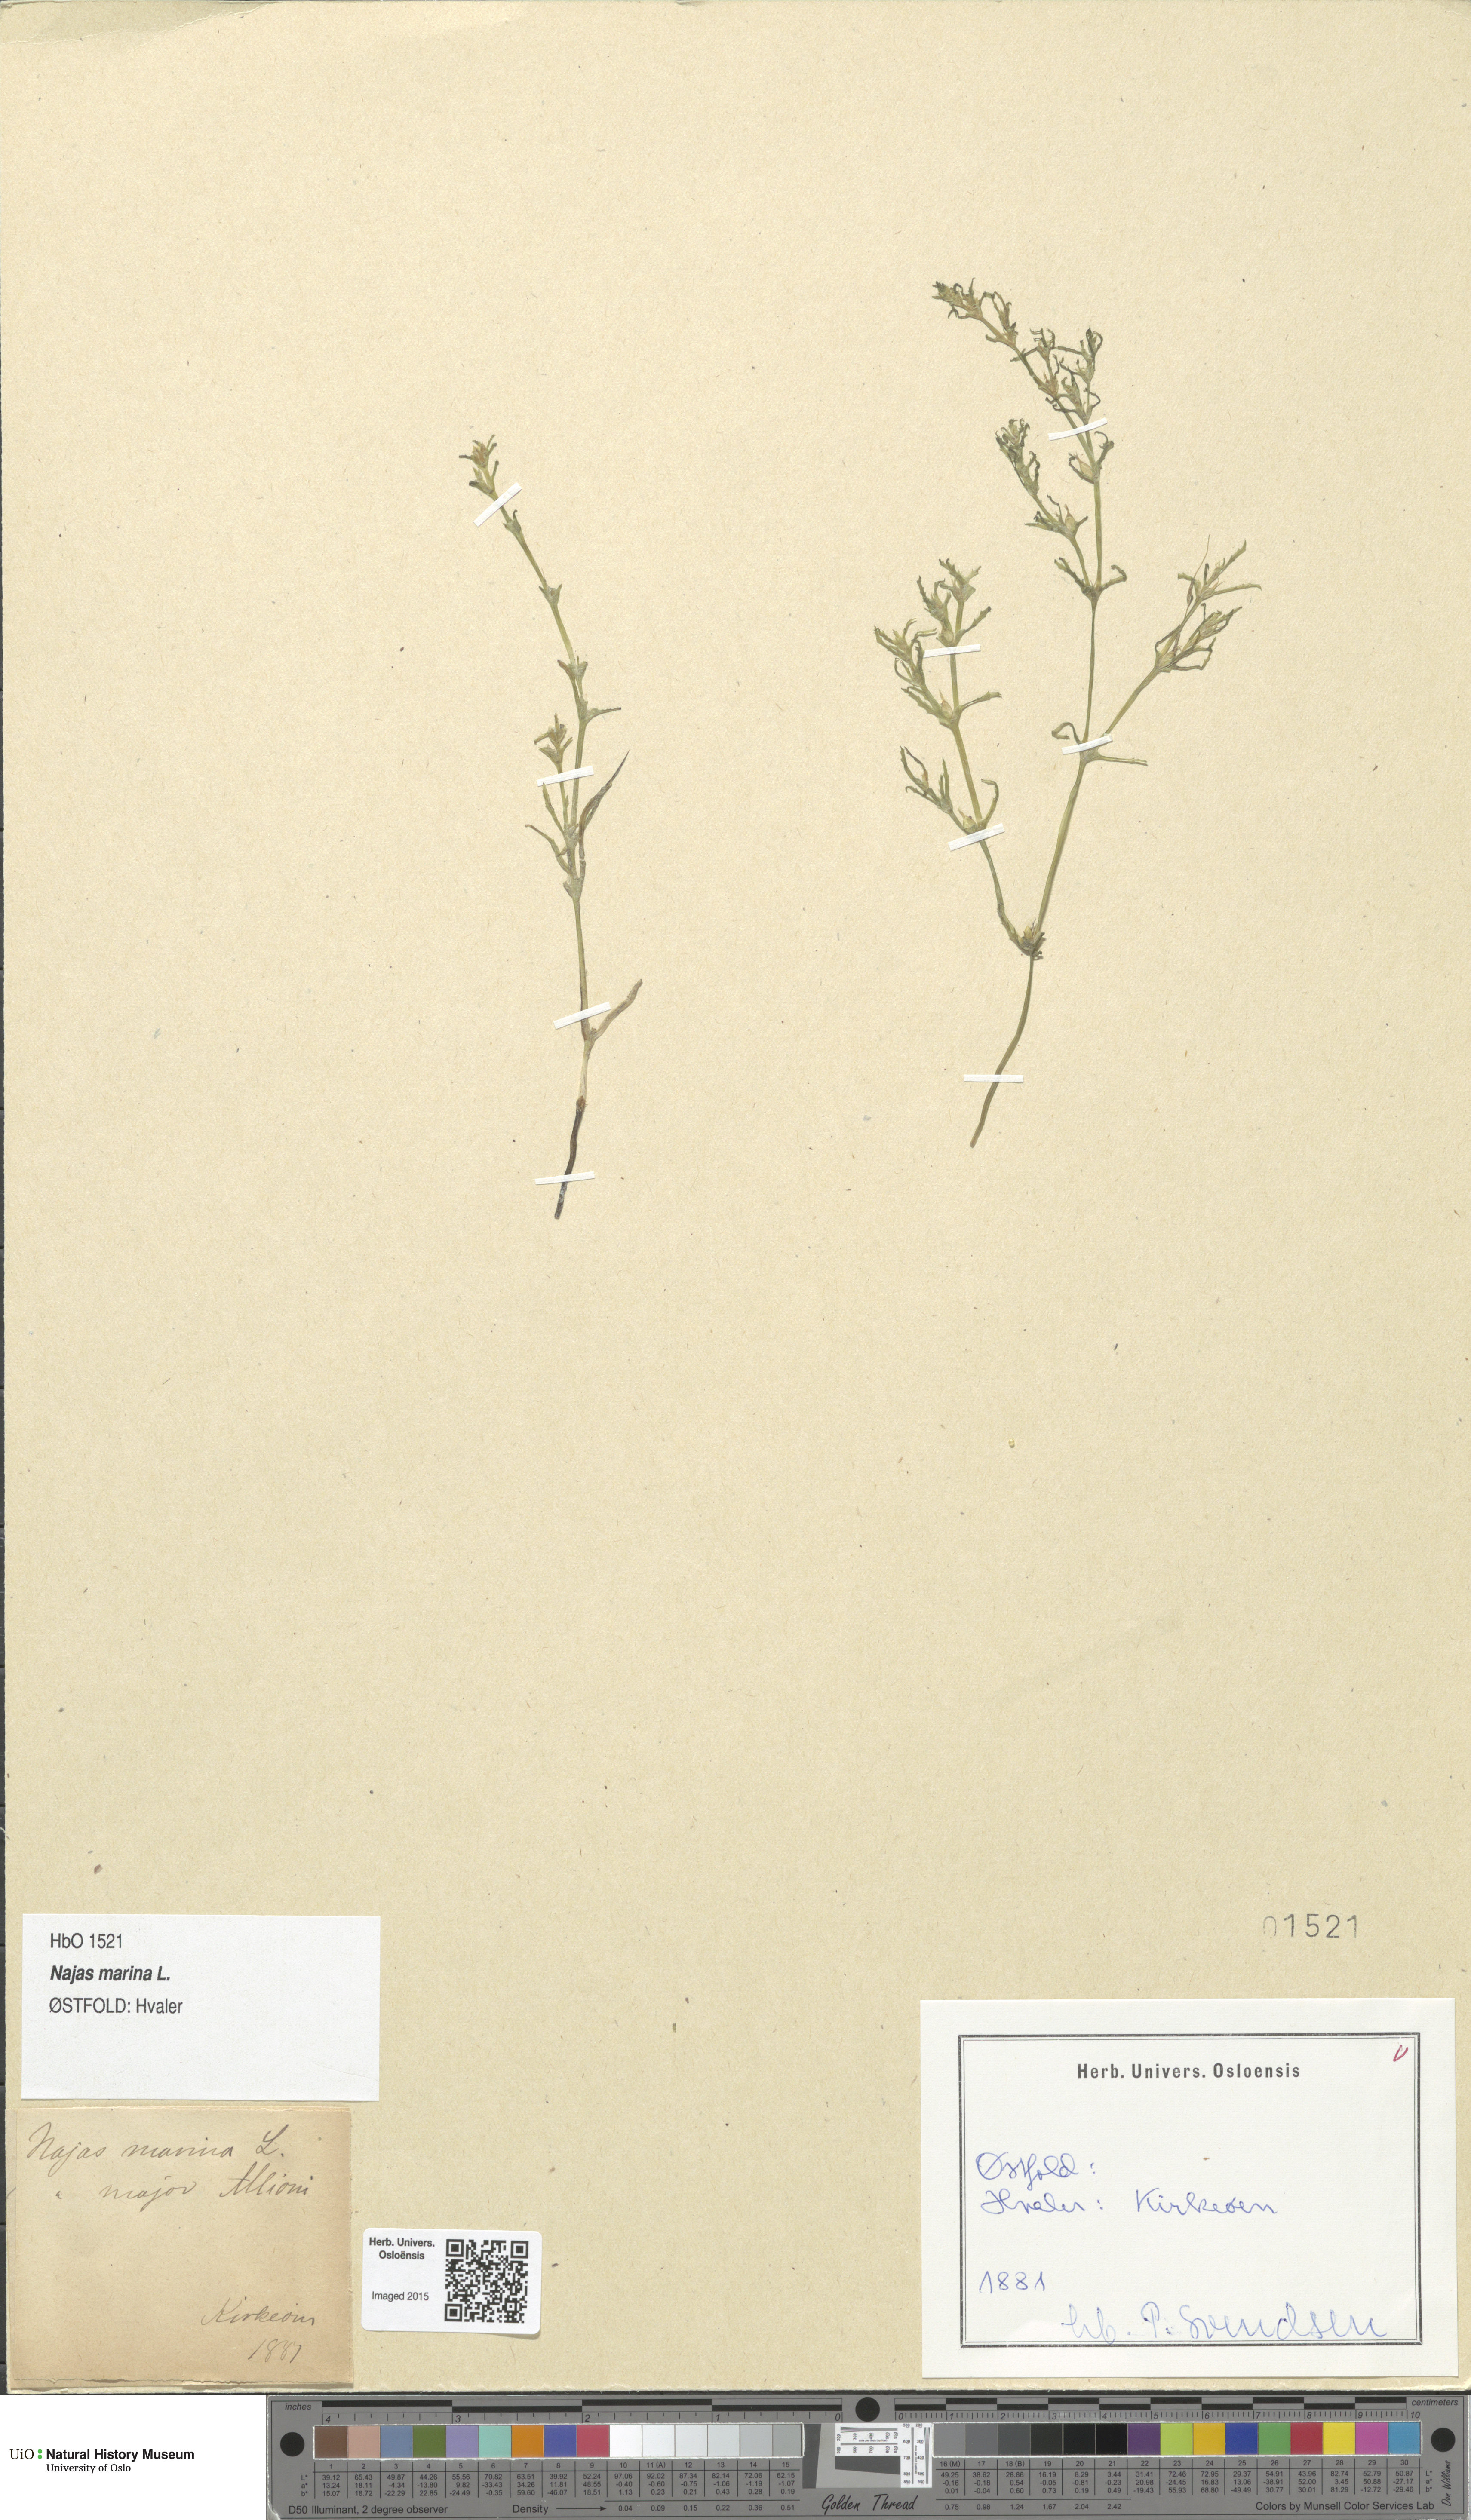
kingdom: Plantae
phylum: Tracheophyta
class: Liliopsida
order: Alismatales
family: Hydrocharitaceae
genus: Najas
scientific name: Najas marina
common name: Holly-leaved naiad
